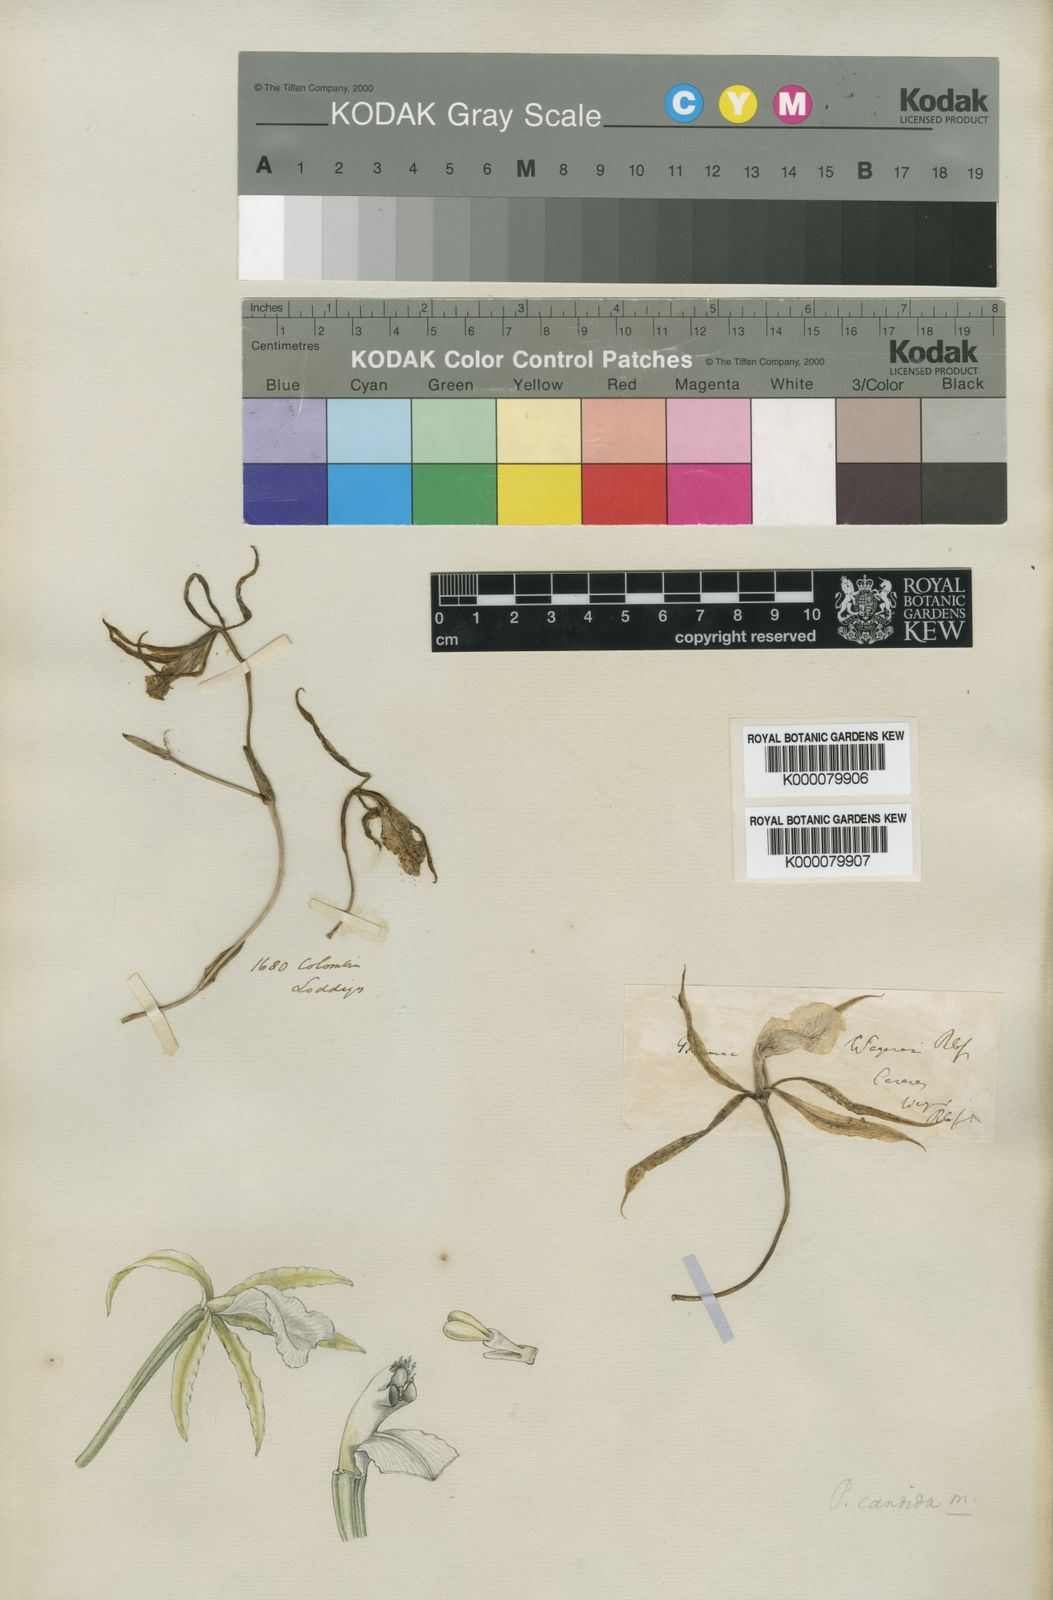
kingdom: Plantae
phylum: Tracheophyta
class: Liliopsida
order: Asparagales
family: Orchidaceae
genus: Trichopilia
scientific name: Trichopilia
